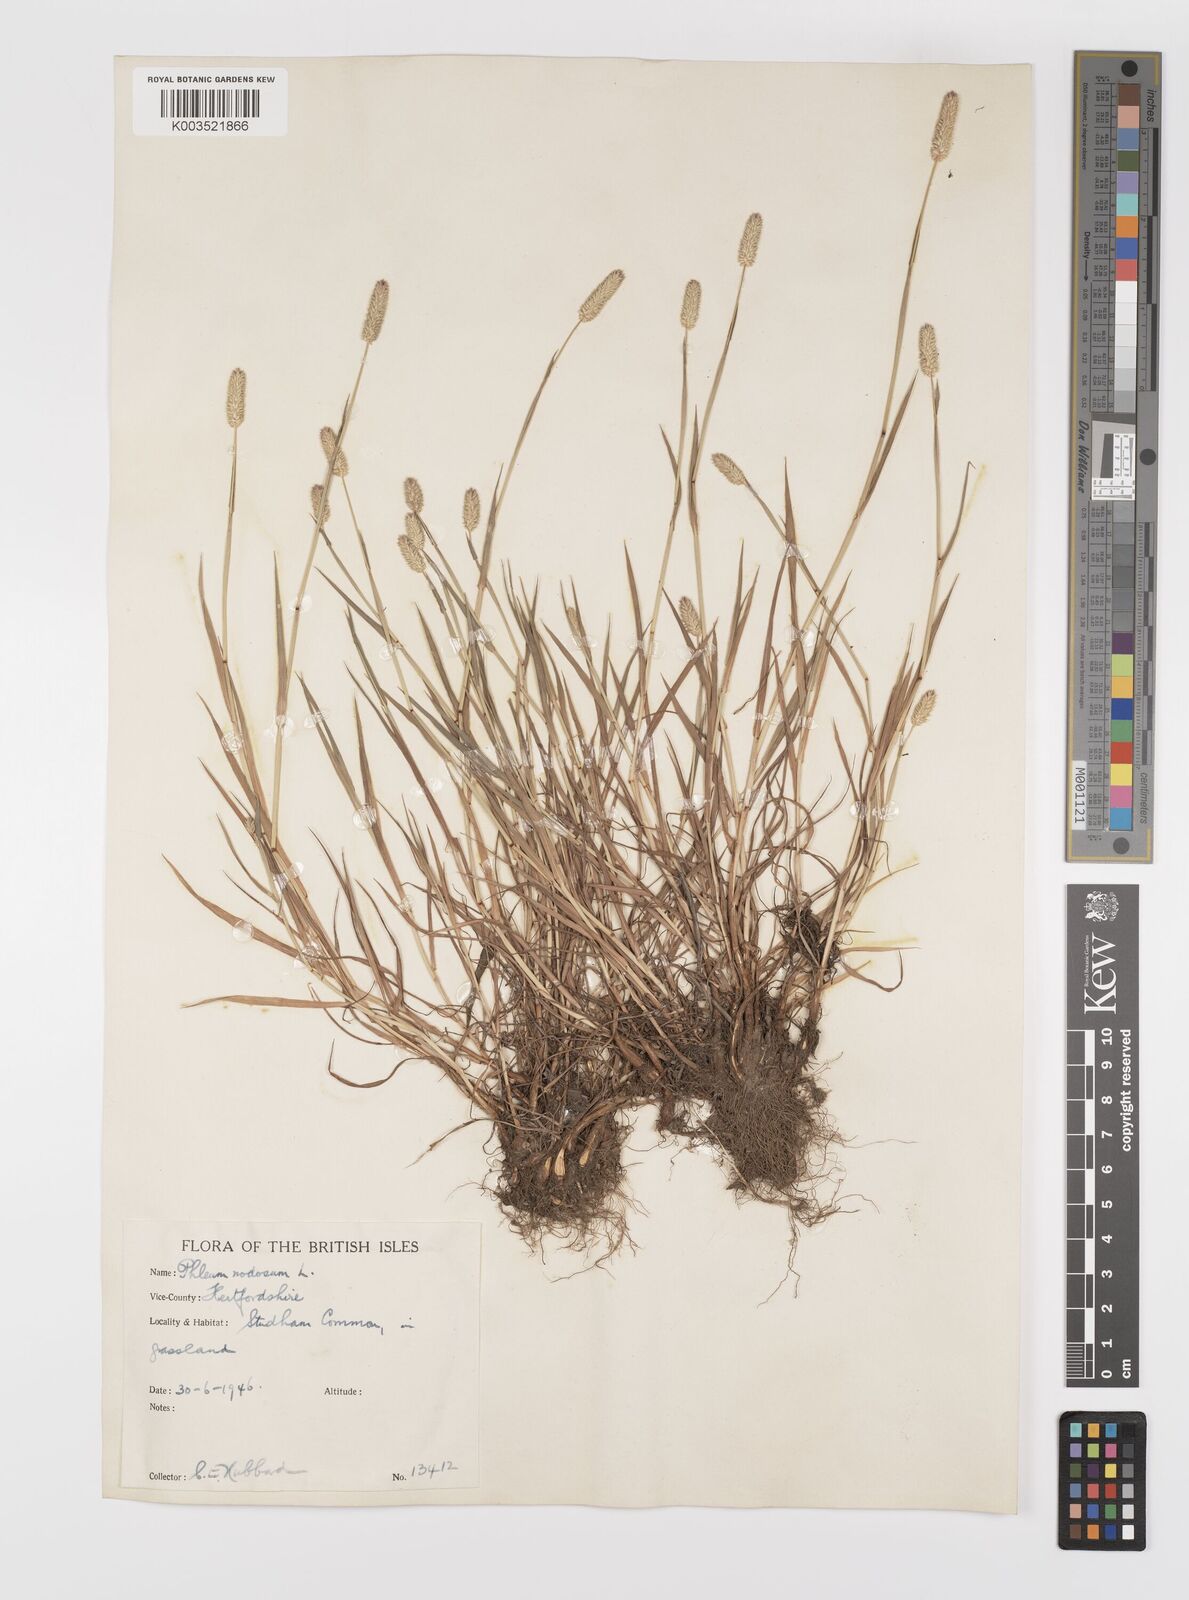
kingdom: Plantae
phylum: Tracheophyta
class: Liliopsida
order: Poales
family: Poaceae
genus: Phleum
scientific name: Phleum bertolonii
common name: Smaller cat's-tail
